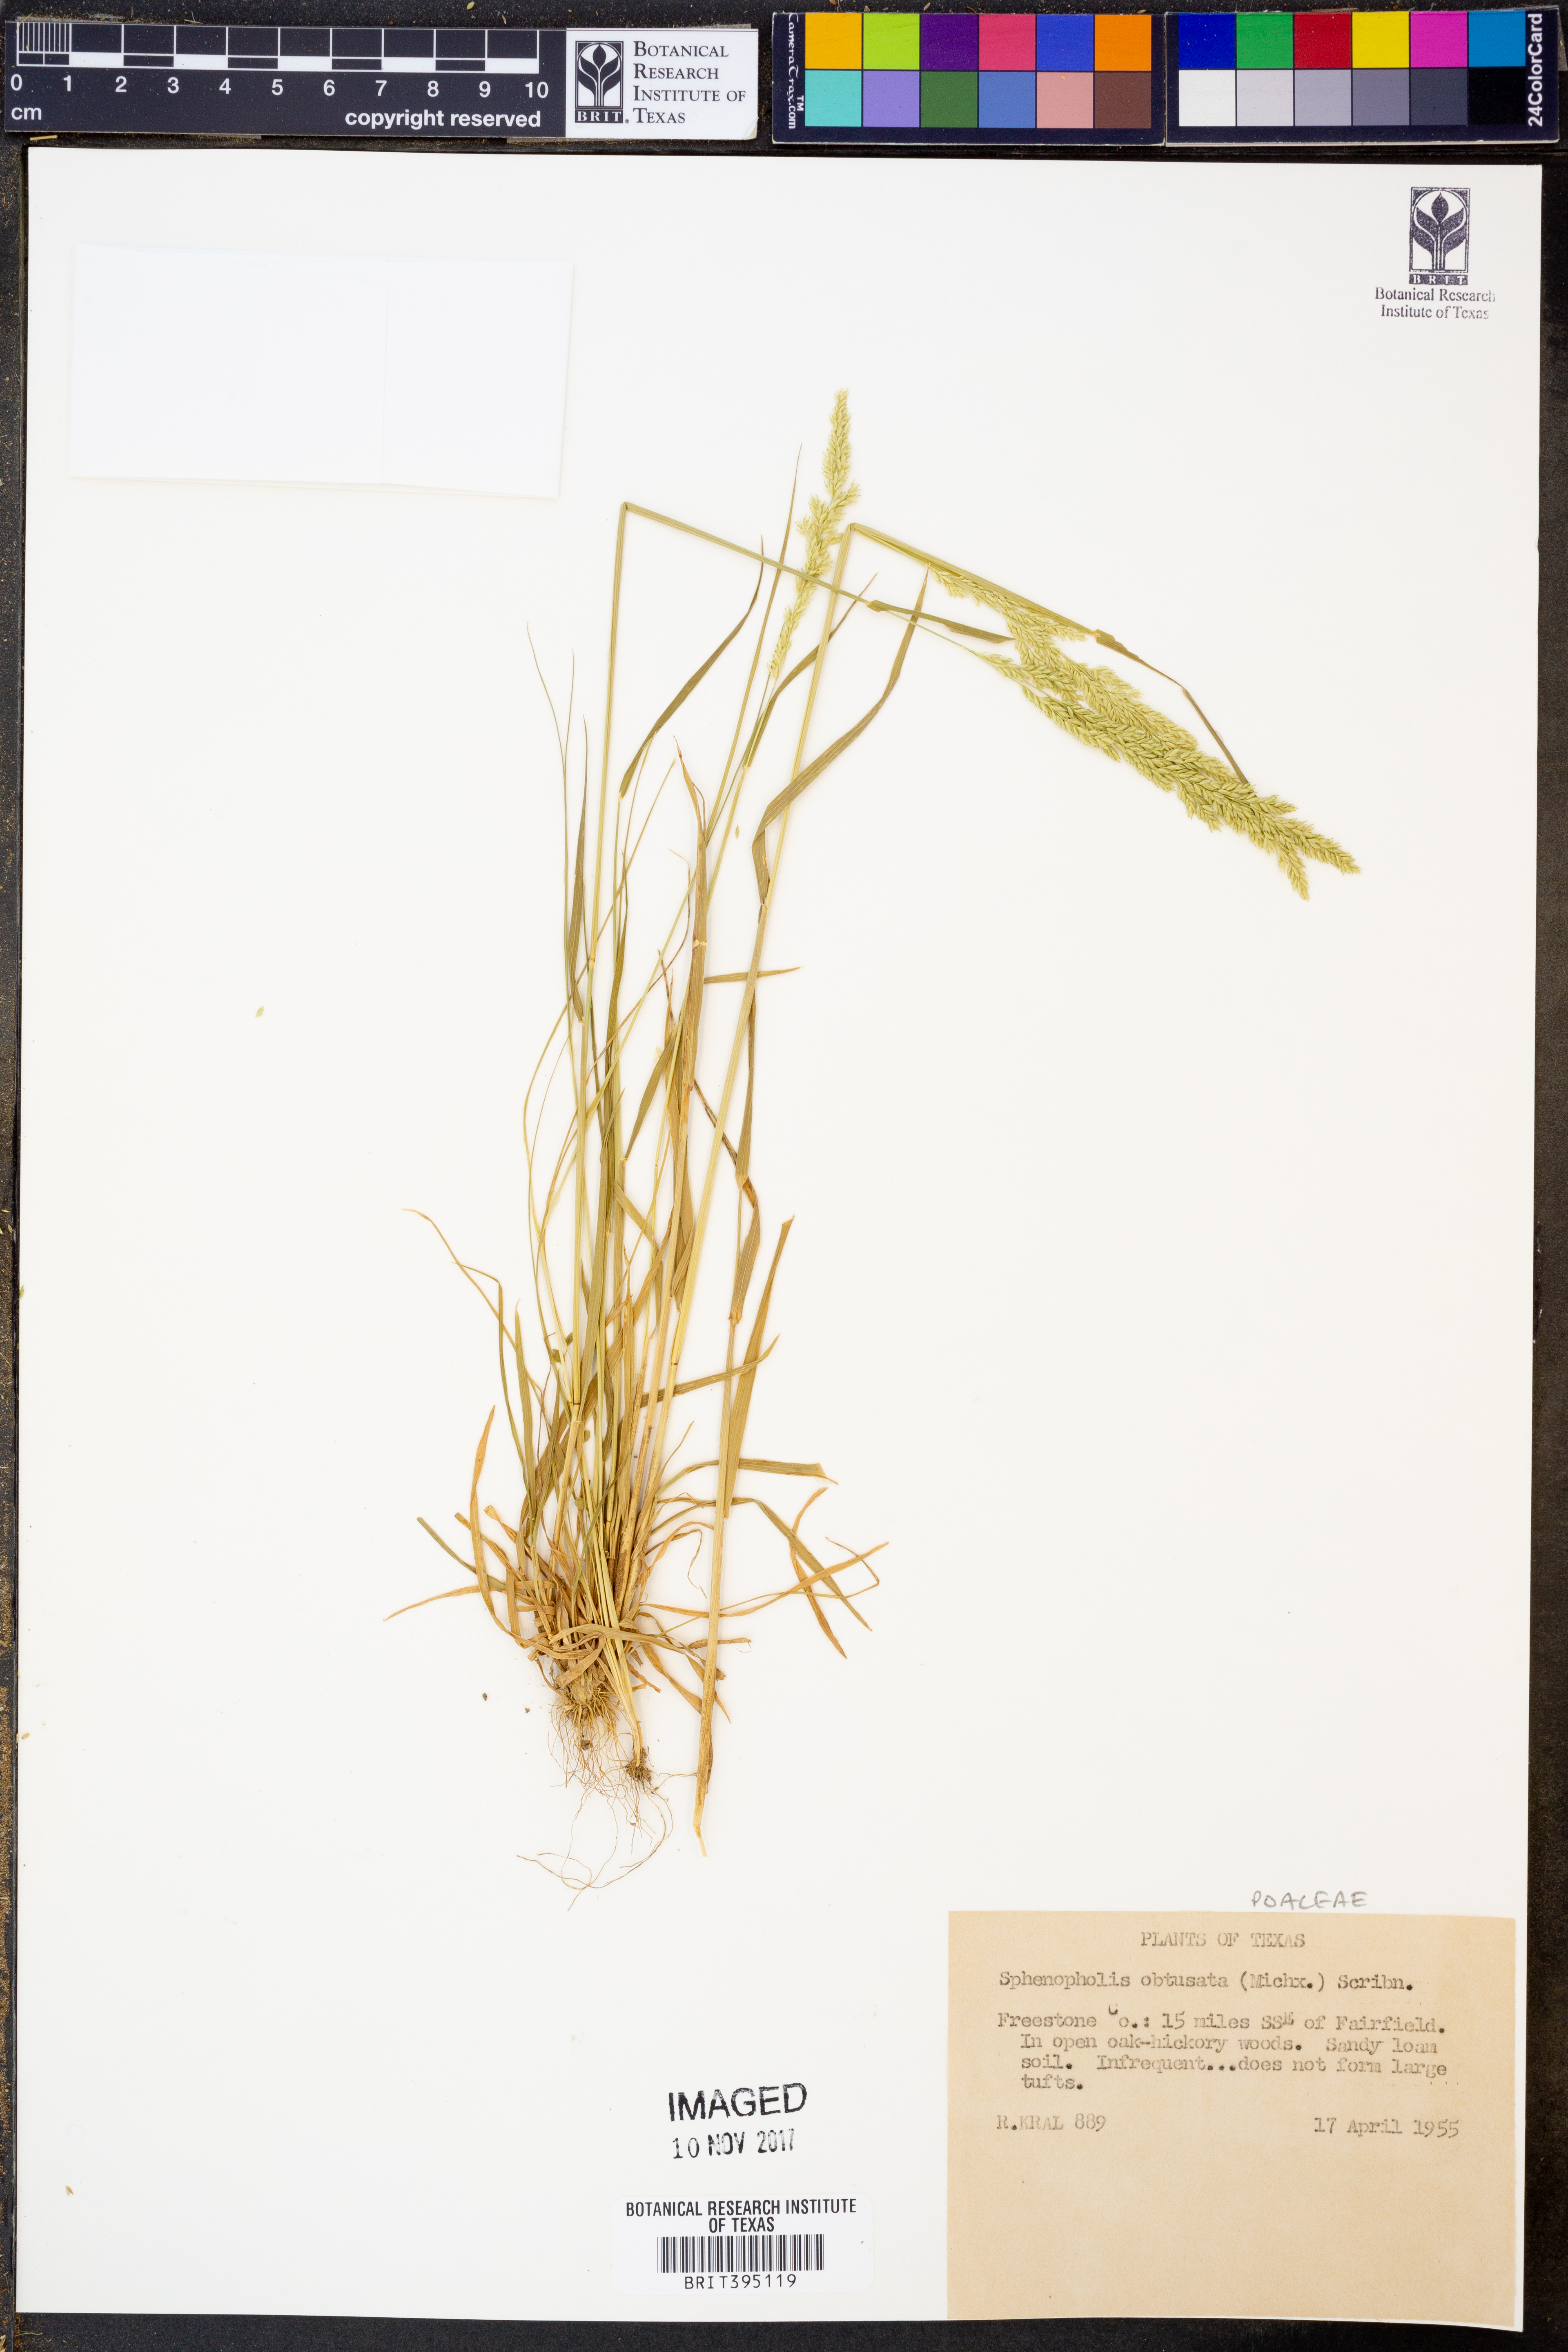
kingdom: Plantae
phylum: Tracheophyta
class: Liliopsida
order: Poales
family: Poaceae
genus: Sphenopholis
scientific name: Sphenopholis obtusata
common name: Prairie grass
